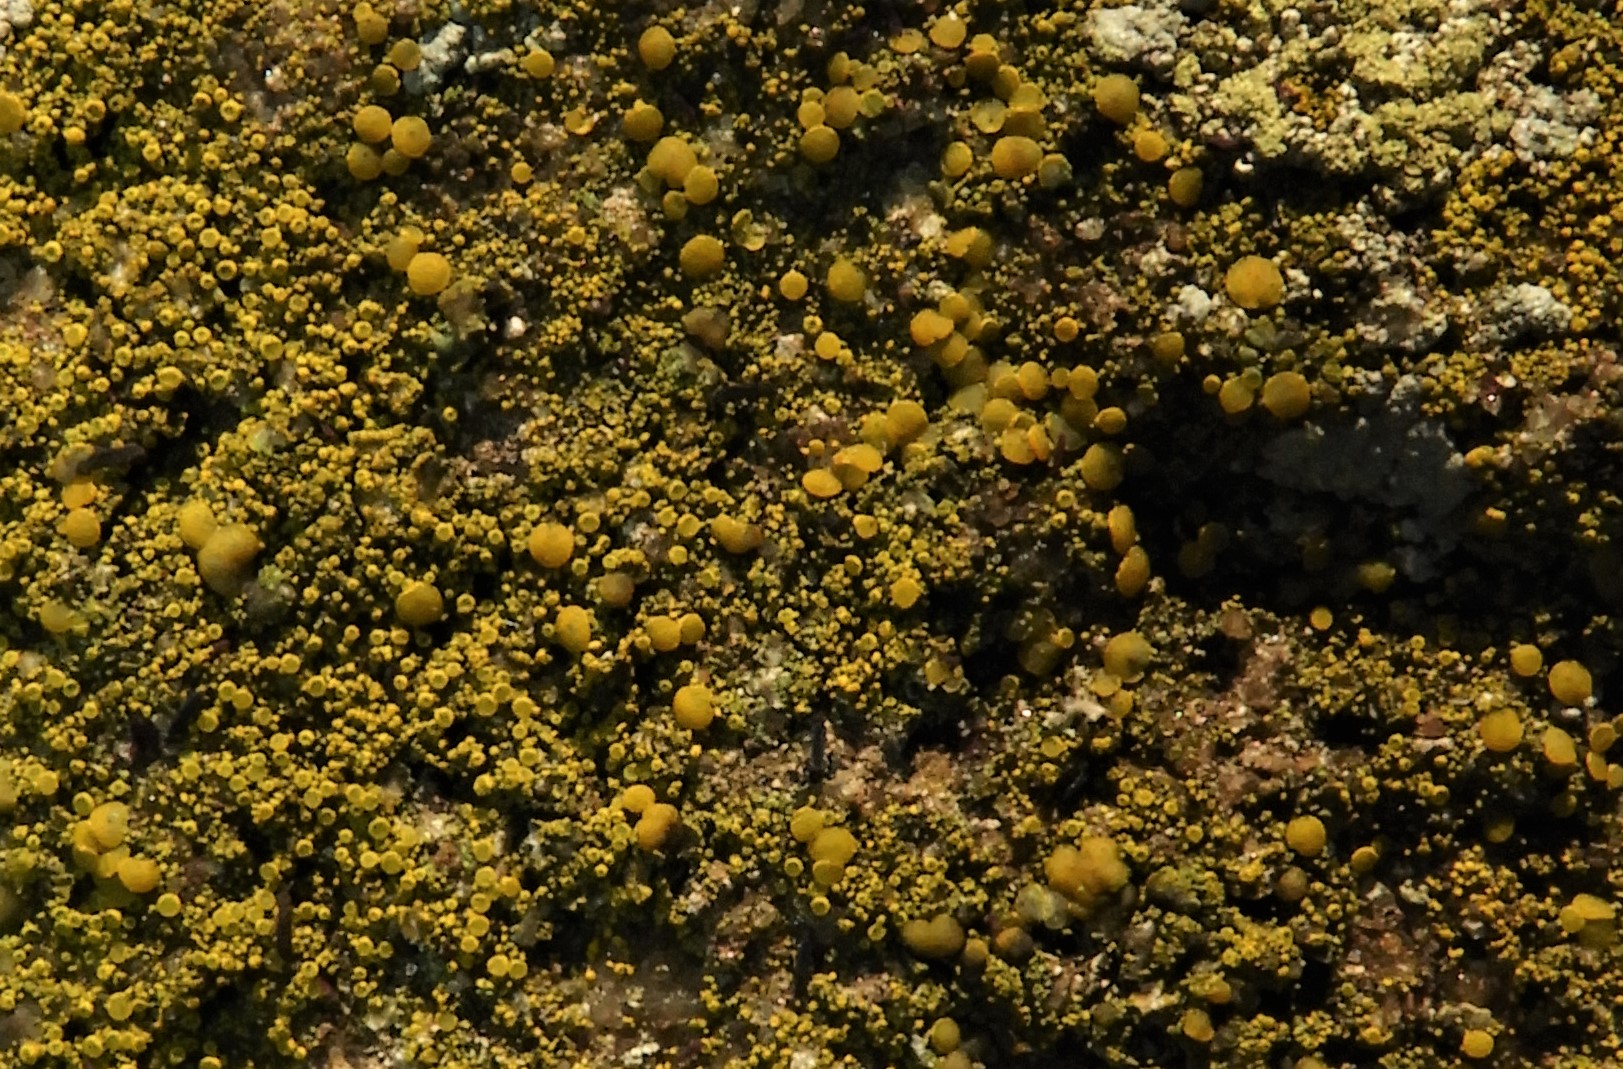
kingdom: Fungi
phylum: Ascomycota
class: Candelariomycetes
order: Candelariales
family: Candelariaceae
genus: Candelariella
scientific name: Candelariella vitellina
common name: almindelig æggeblommelav
